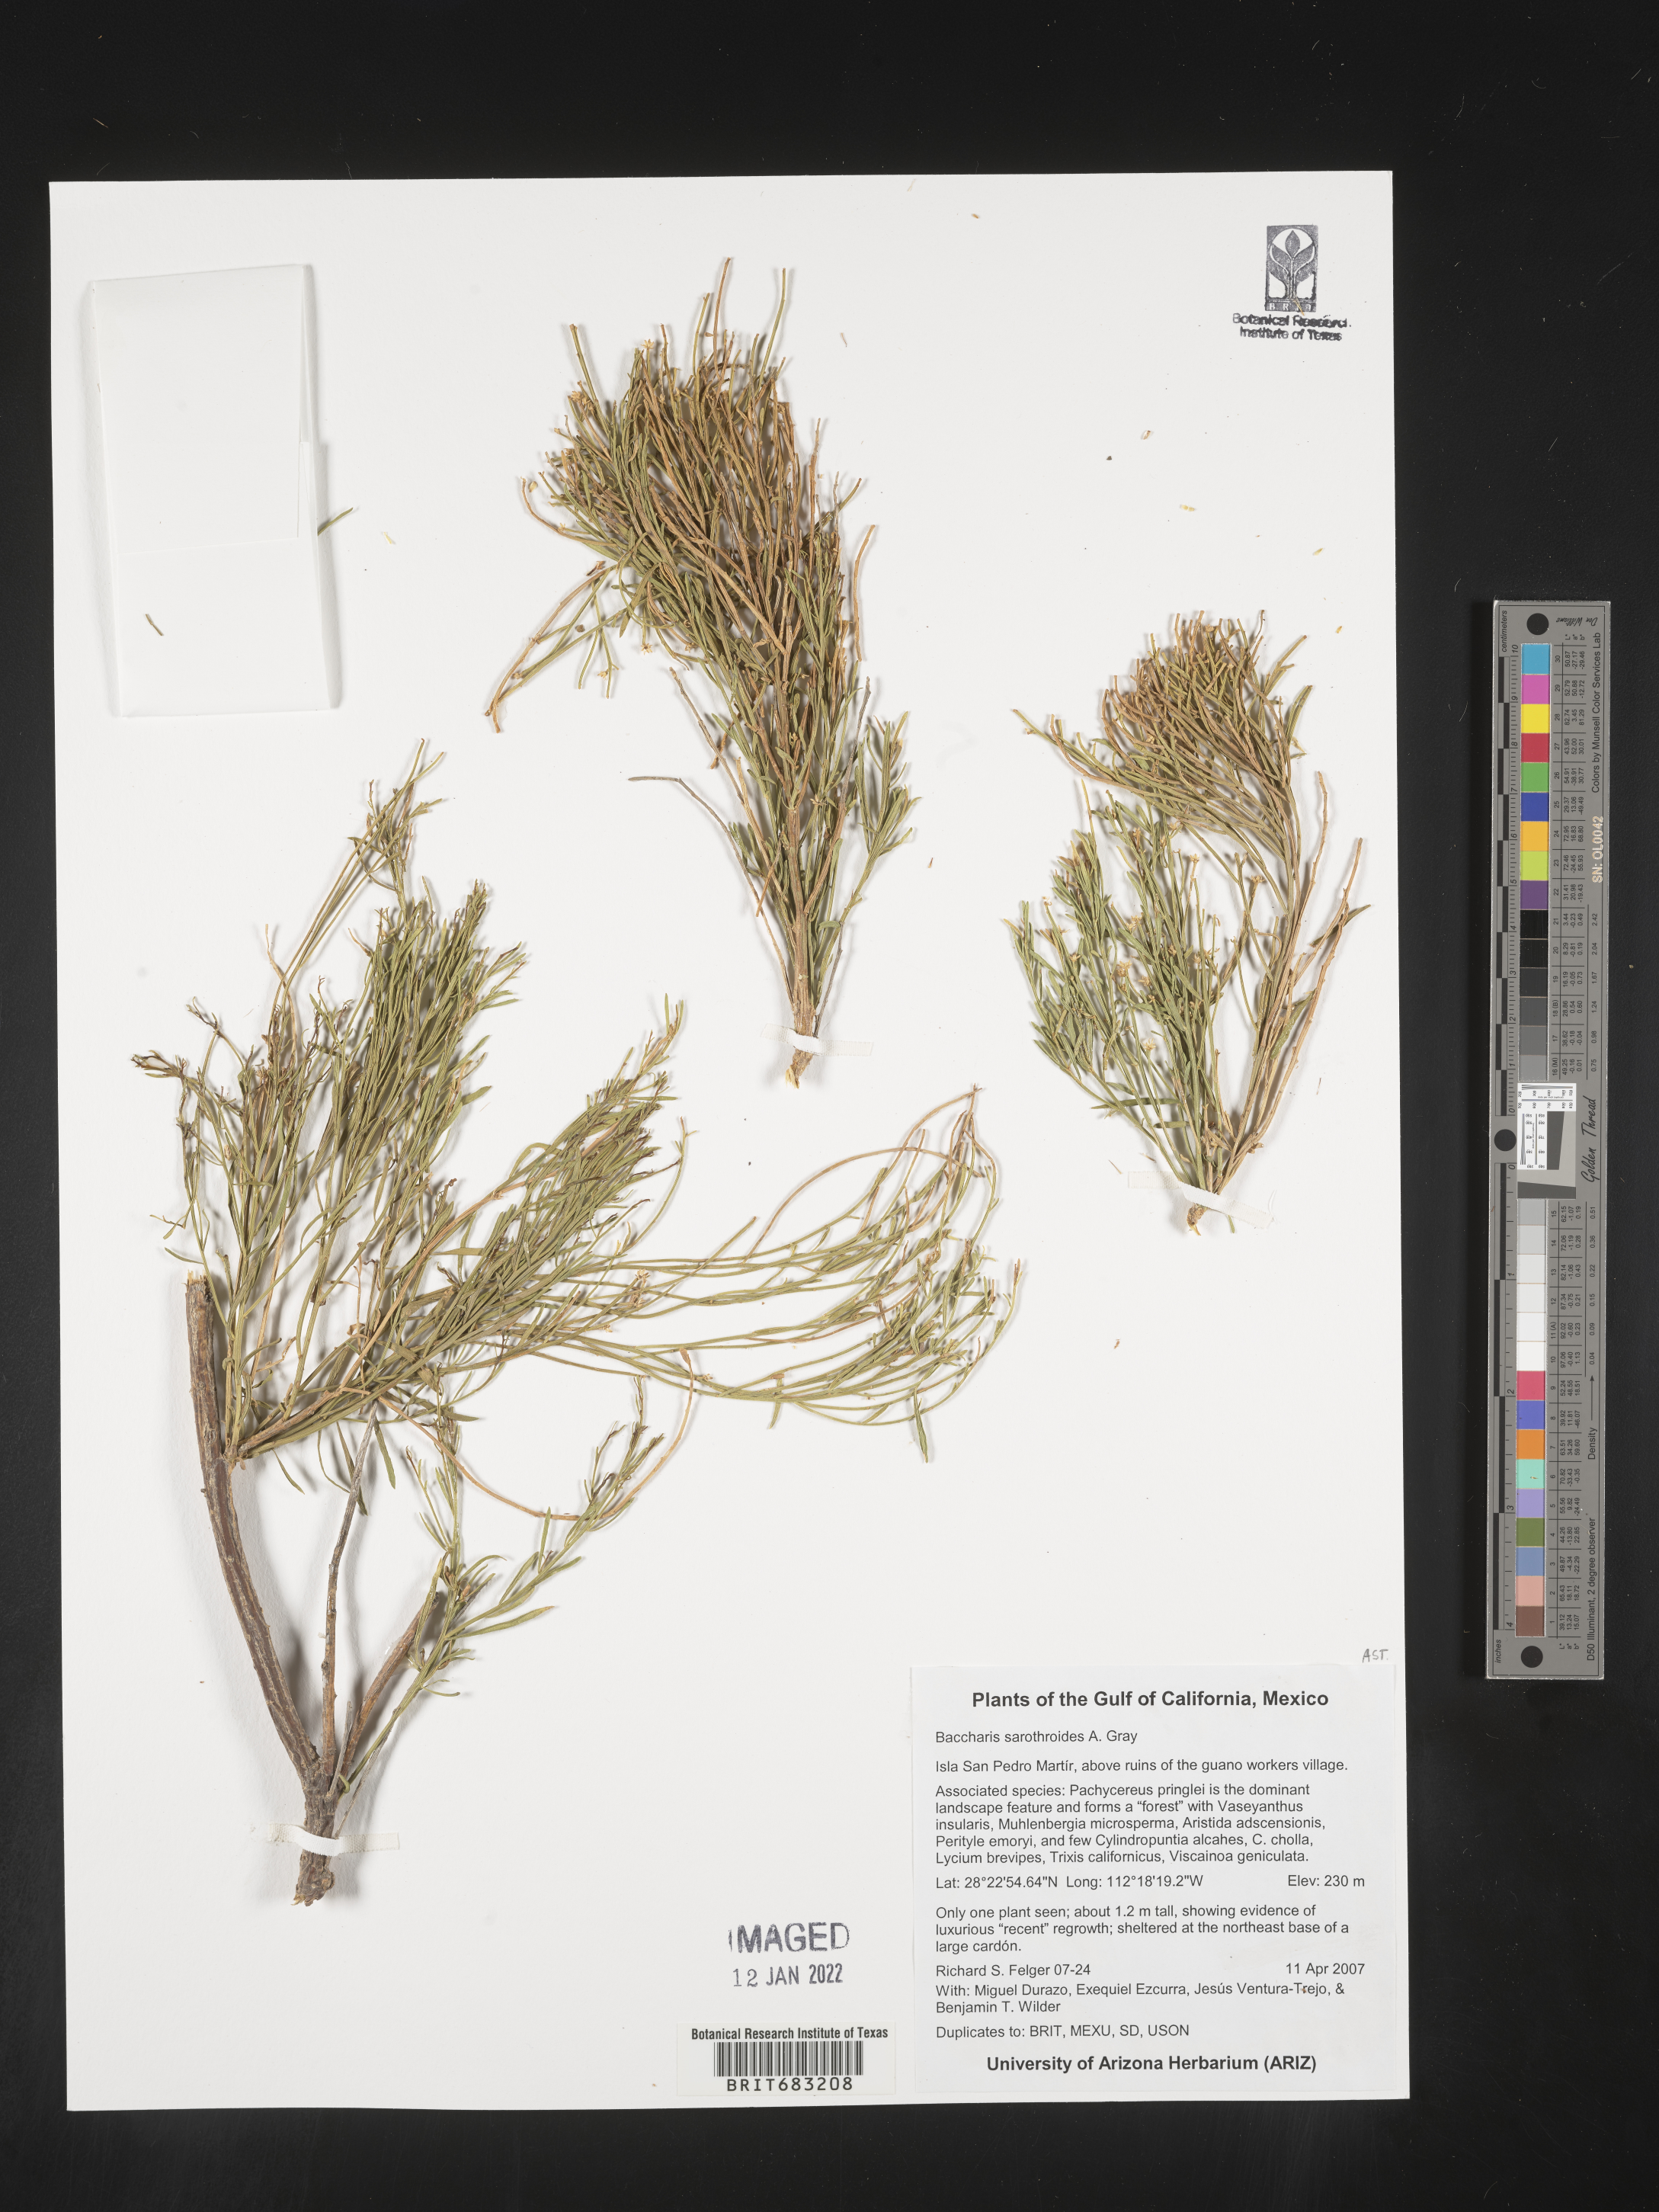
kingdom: Plantae
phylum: Tracheophyta
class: Magnoliopsida
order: Asterales
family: Asteraceae
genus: Baccharis
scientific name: Baccharis sarothroides
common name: Desert-broom
